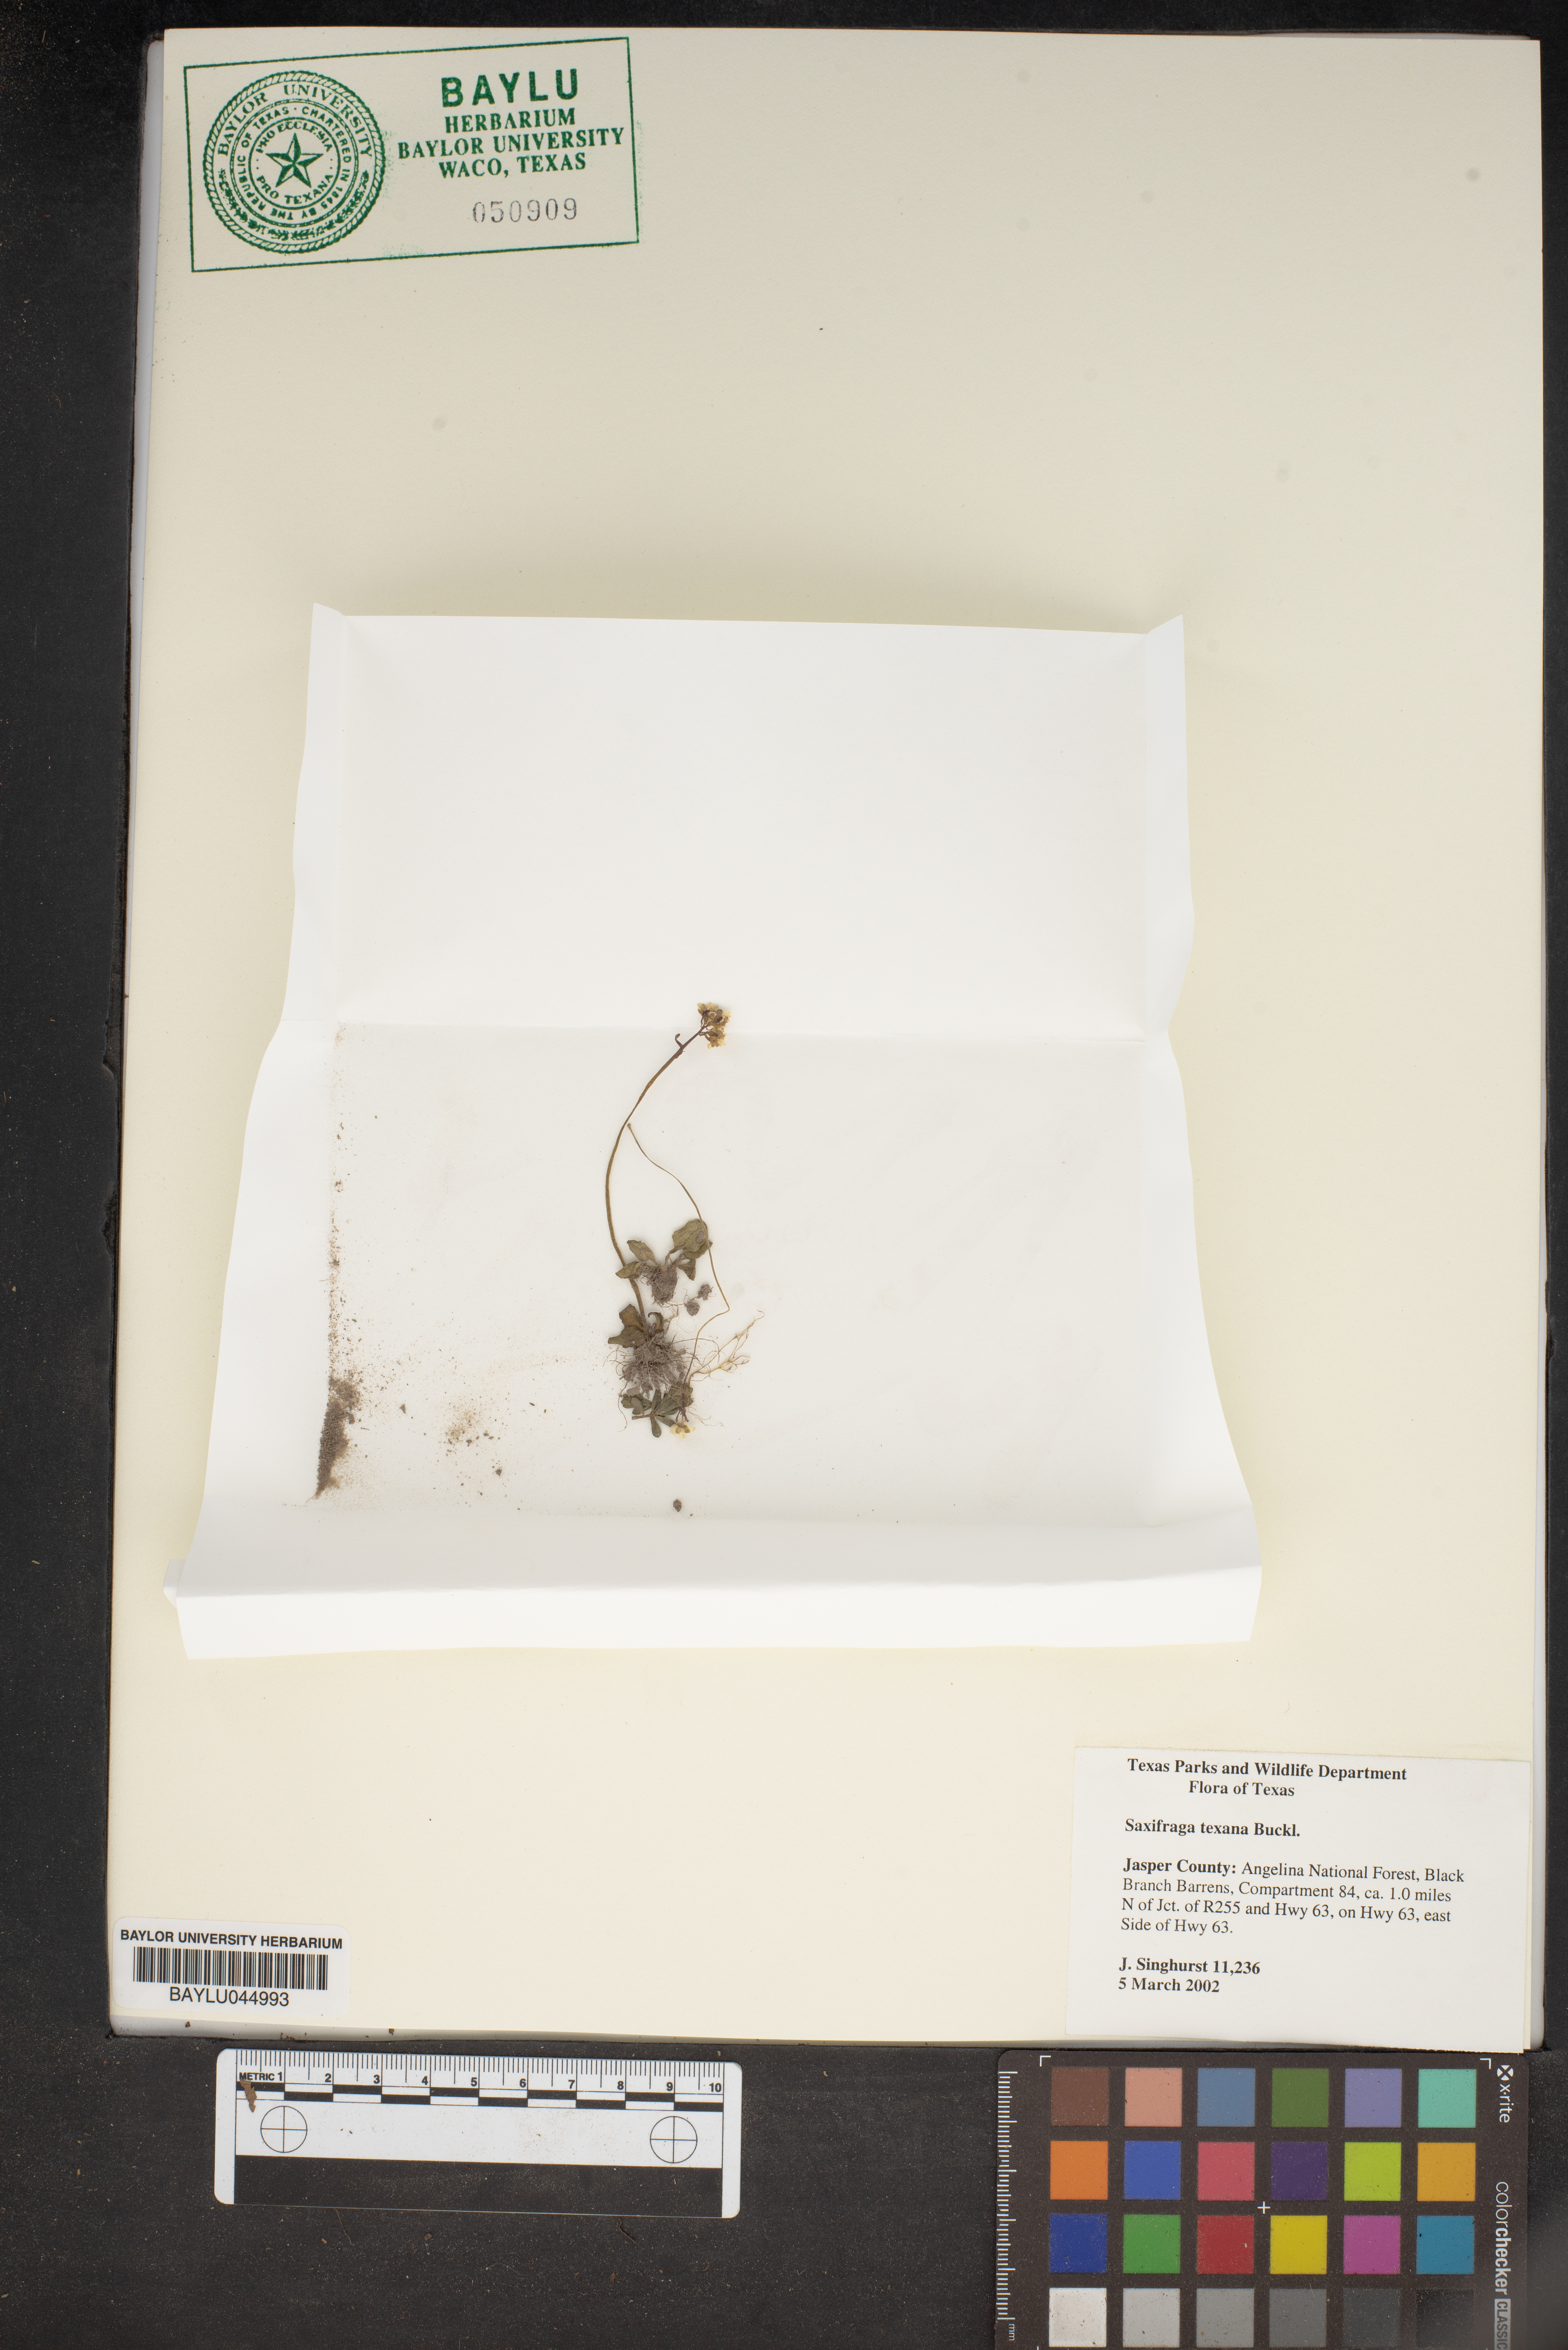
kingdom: Plantae
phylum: Tracheophyta
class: Magnoliopsida
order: Saxifragales
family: Saxifragaceae
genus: Micranthes
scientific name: Micranthes texana
